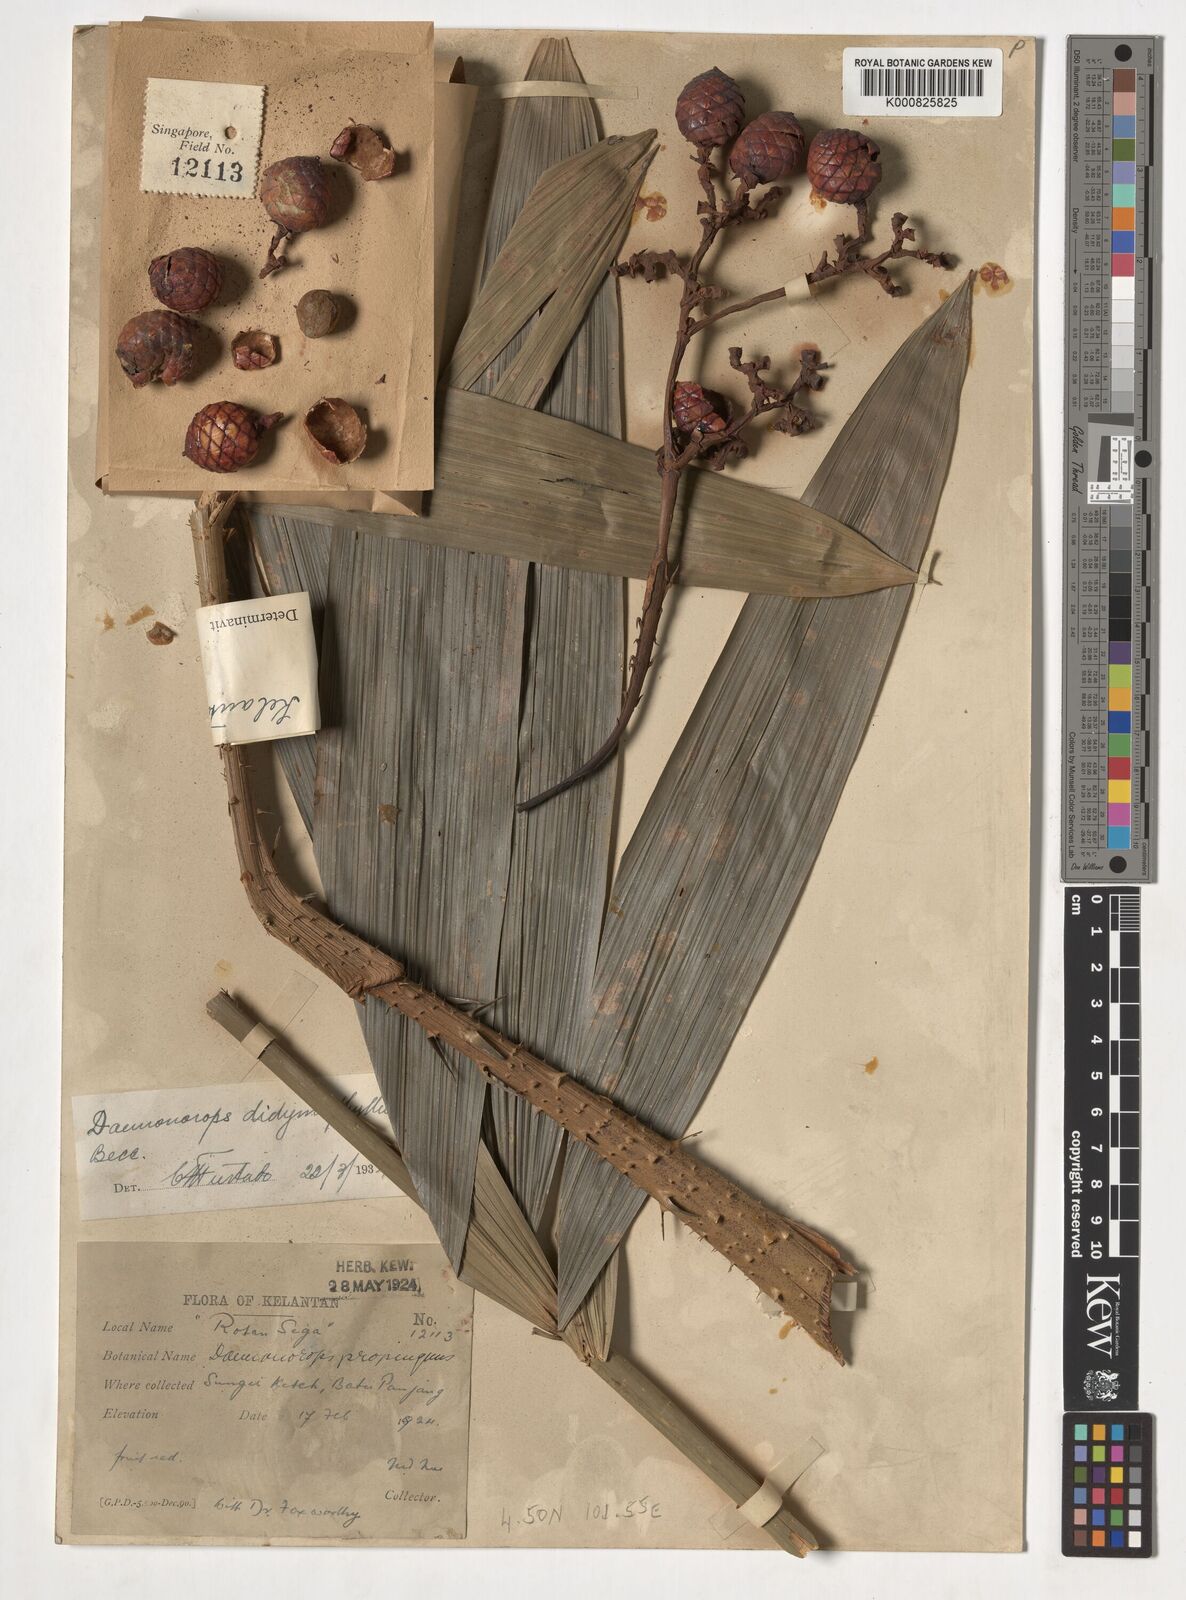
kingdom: Plantae
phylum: Tracheophyta
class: Liliopsida
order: Arecales
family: Arecaceae
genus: Calamus
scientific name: Calamus gracilipes
